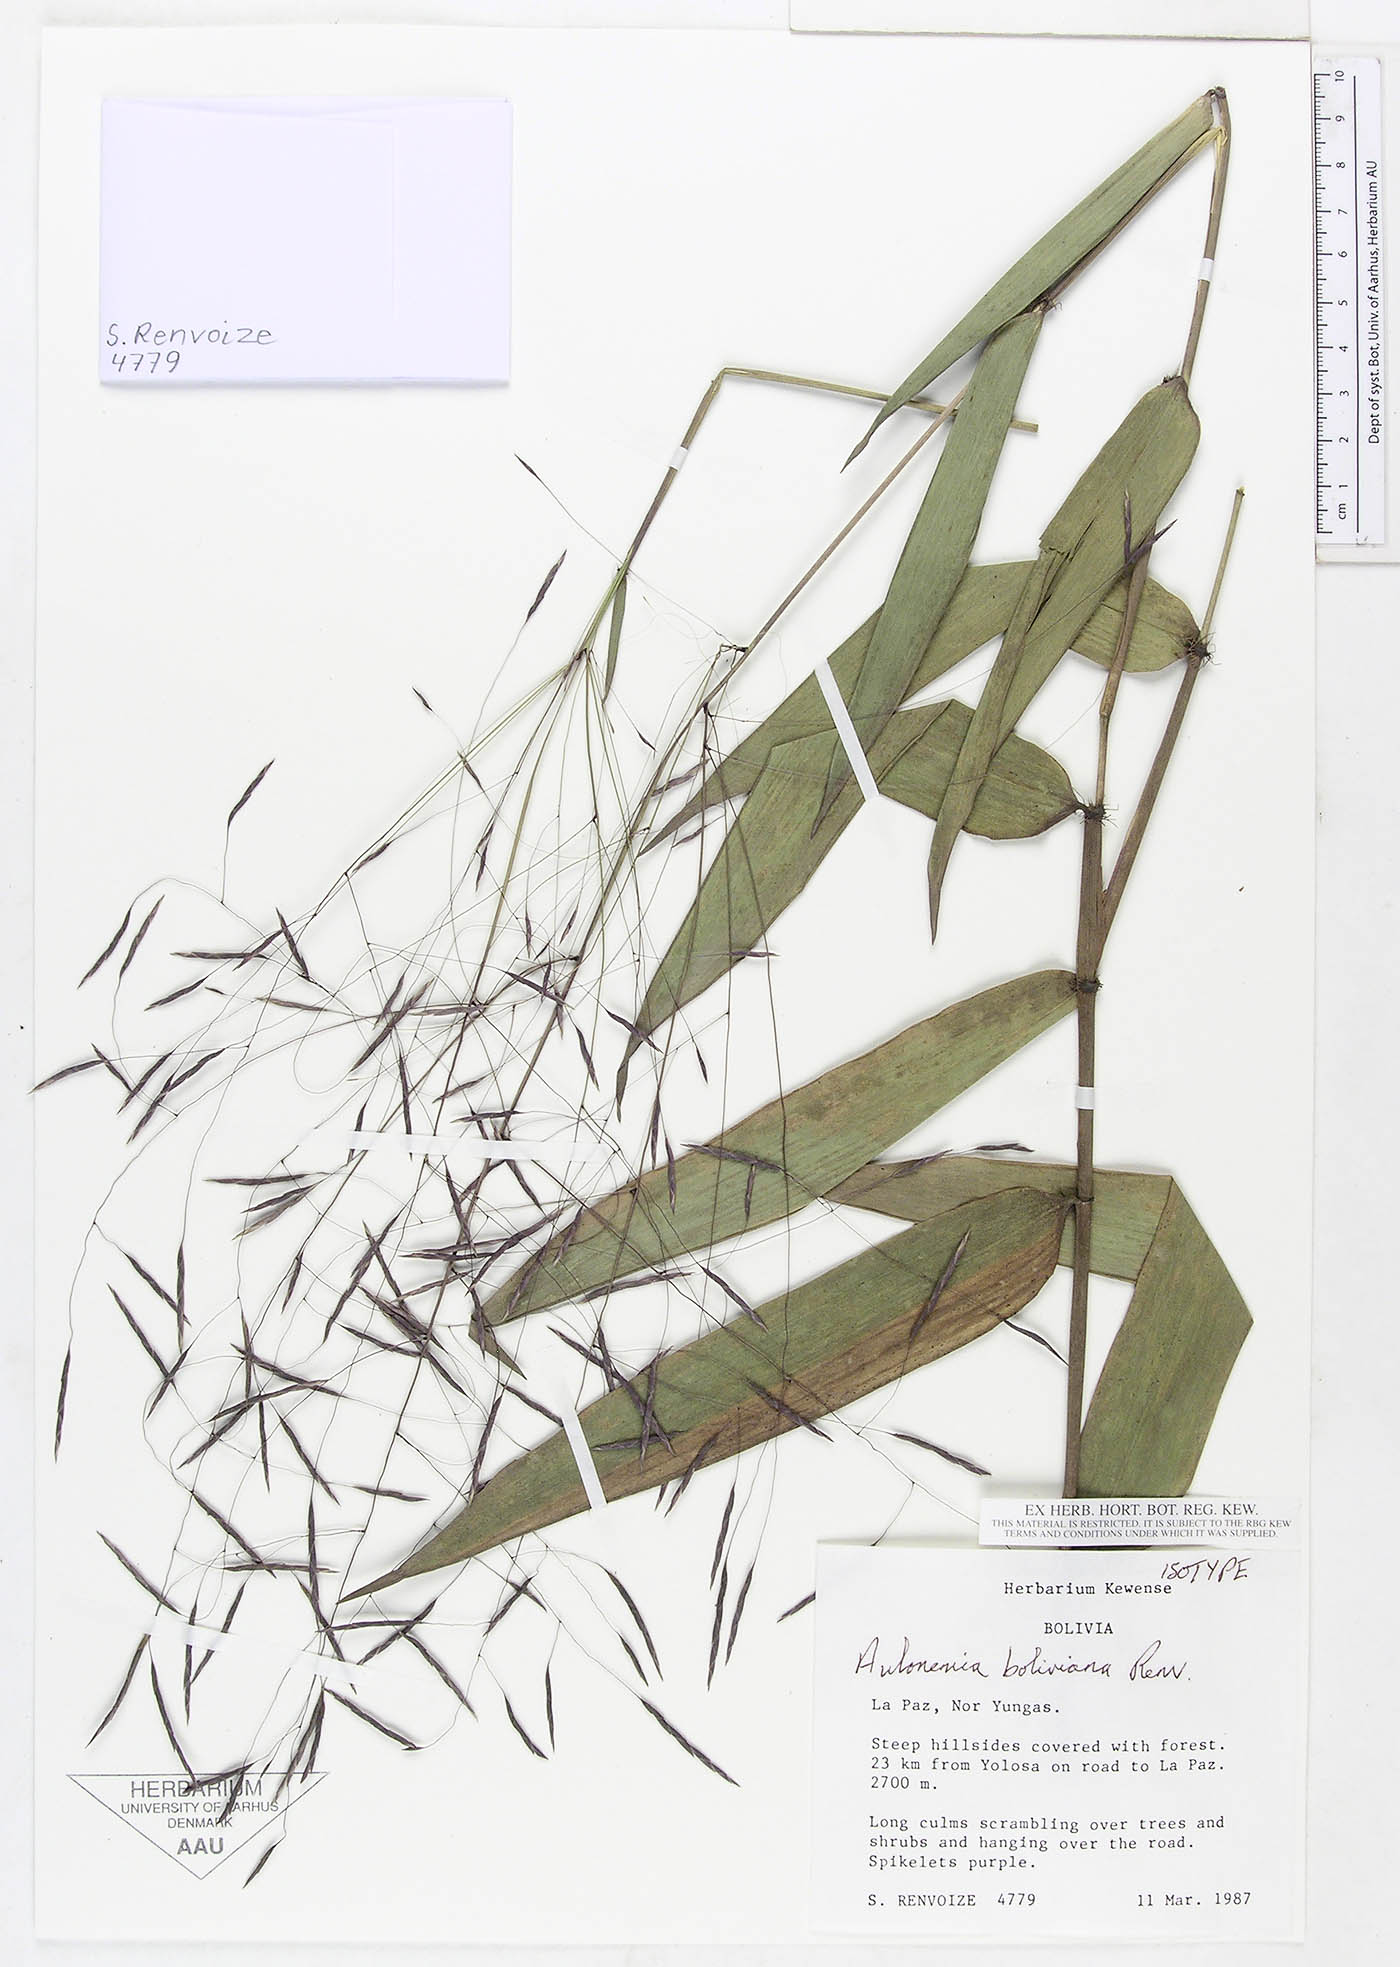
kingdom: Plantae
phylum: Tracheophyta
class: Liliopsida
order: Poales
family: Poaceae
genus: Aulonemia
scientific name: Aulonemia boliviana
